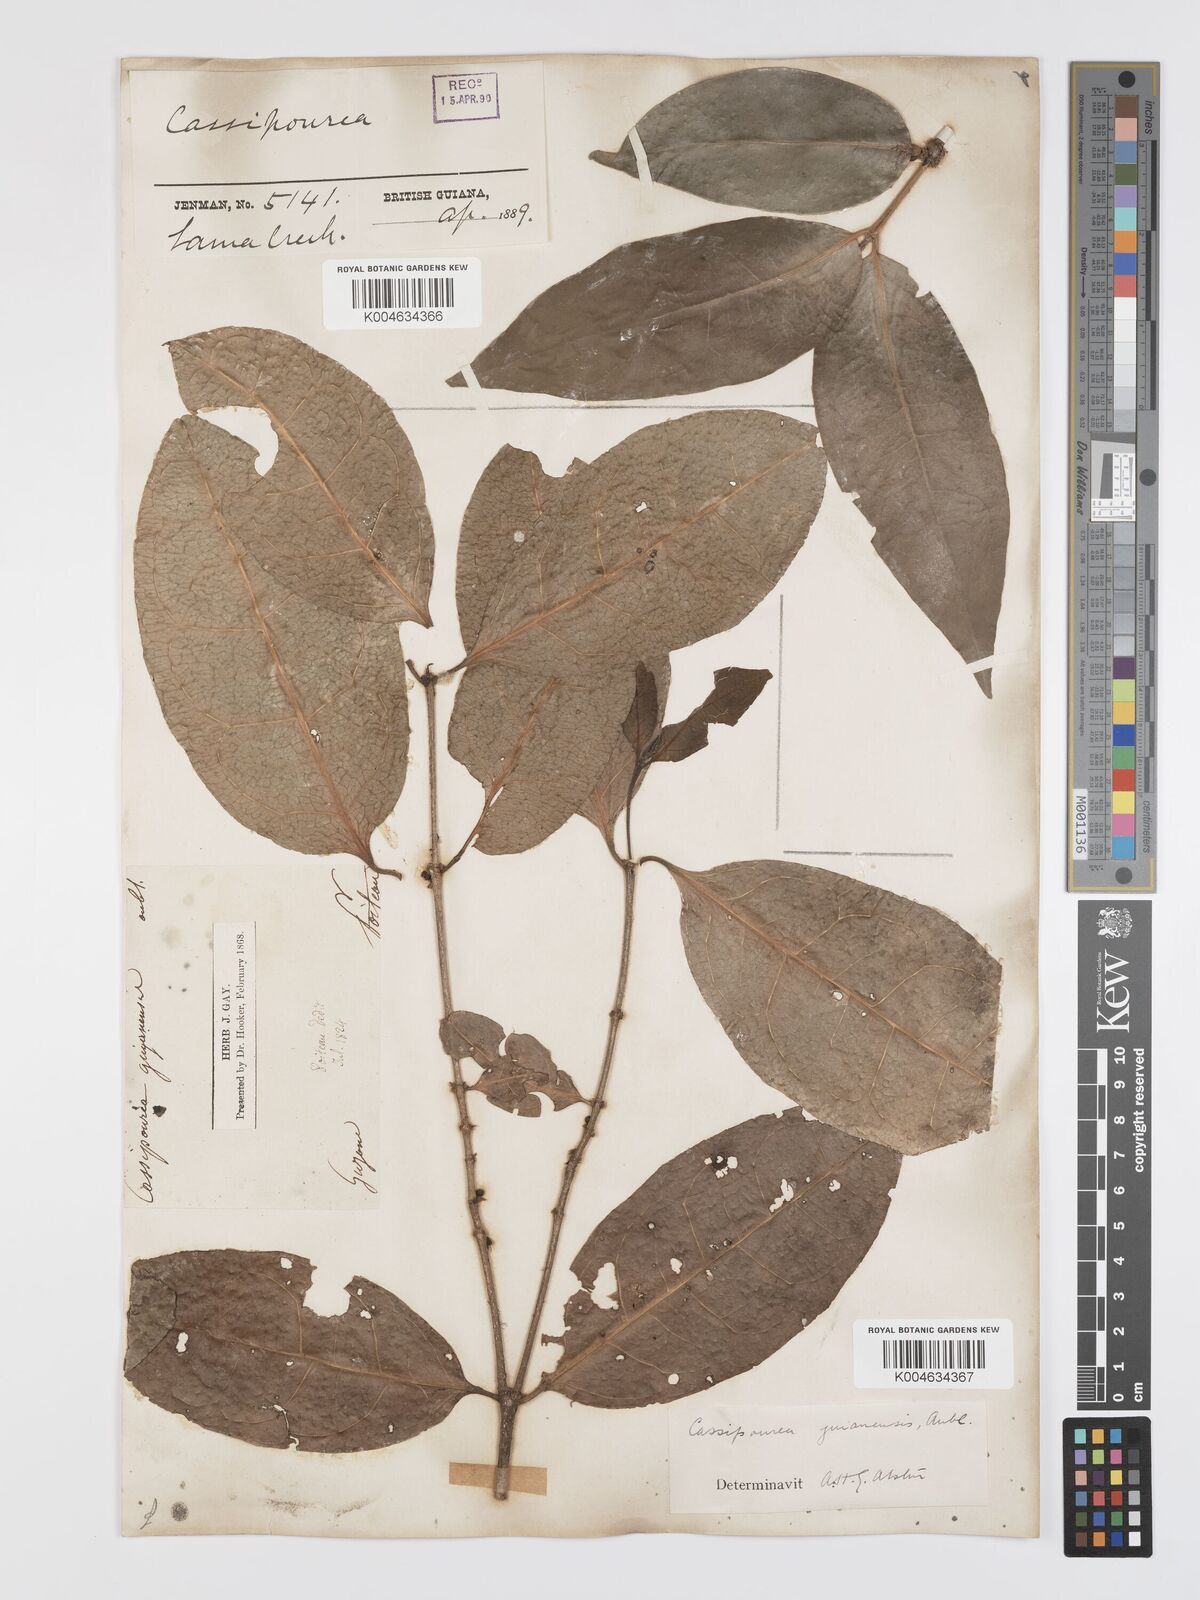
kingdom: Plantae
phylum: Tracheophyta
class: Magnoliopsida
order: Malpighiales
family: Rhizophoraceae
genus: Cassipourea
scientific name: Cassipourea guianensis
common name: Bastard waterwood
